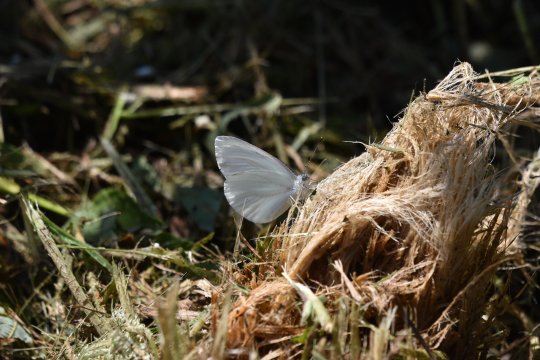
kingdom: Animalia
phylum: Arthropoda
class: Insecta
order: Lepidoptera
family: Pieridae
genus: Pieris
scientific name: Pieris oleracea
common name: Mustard White
